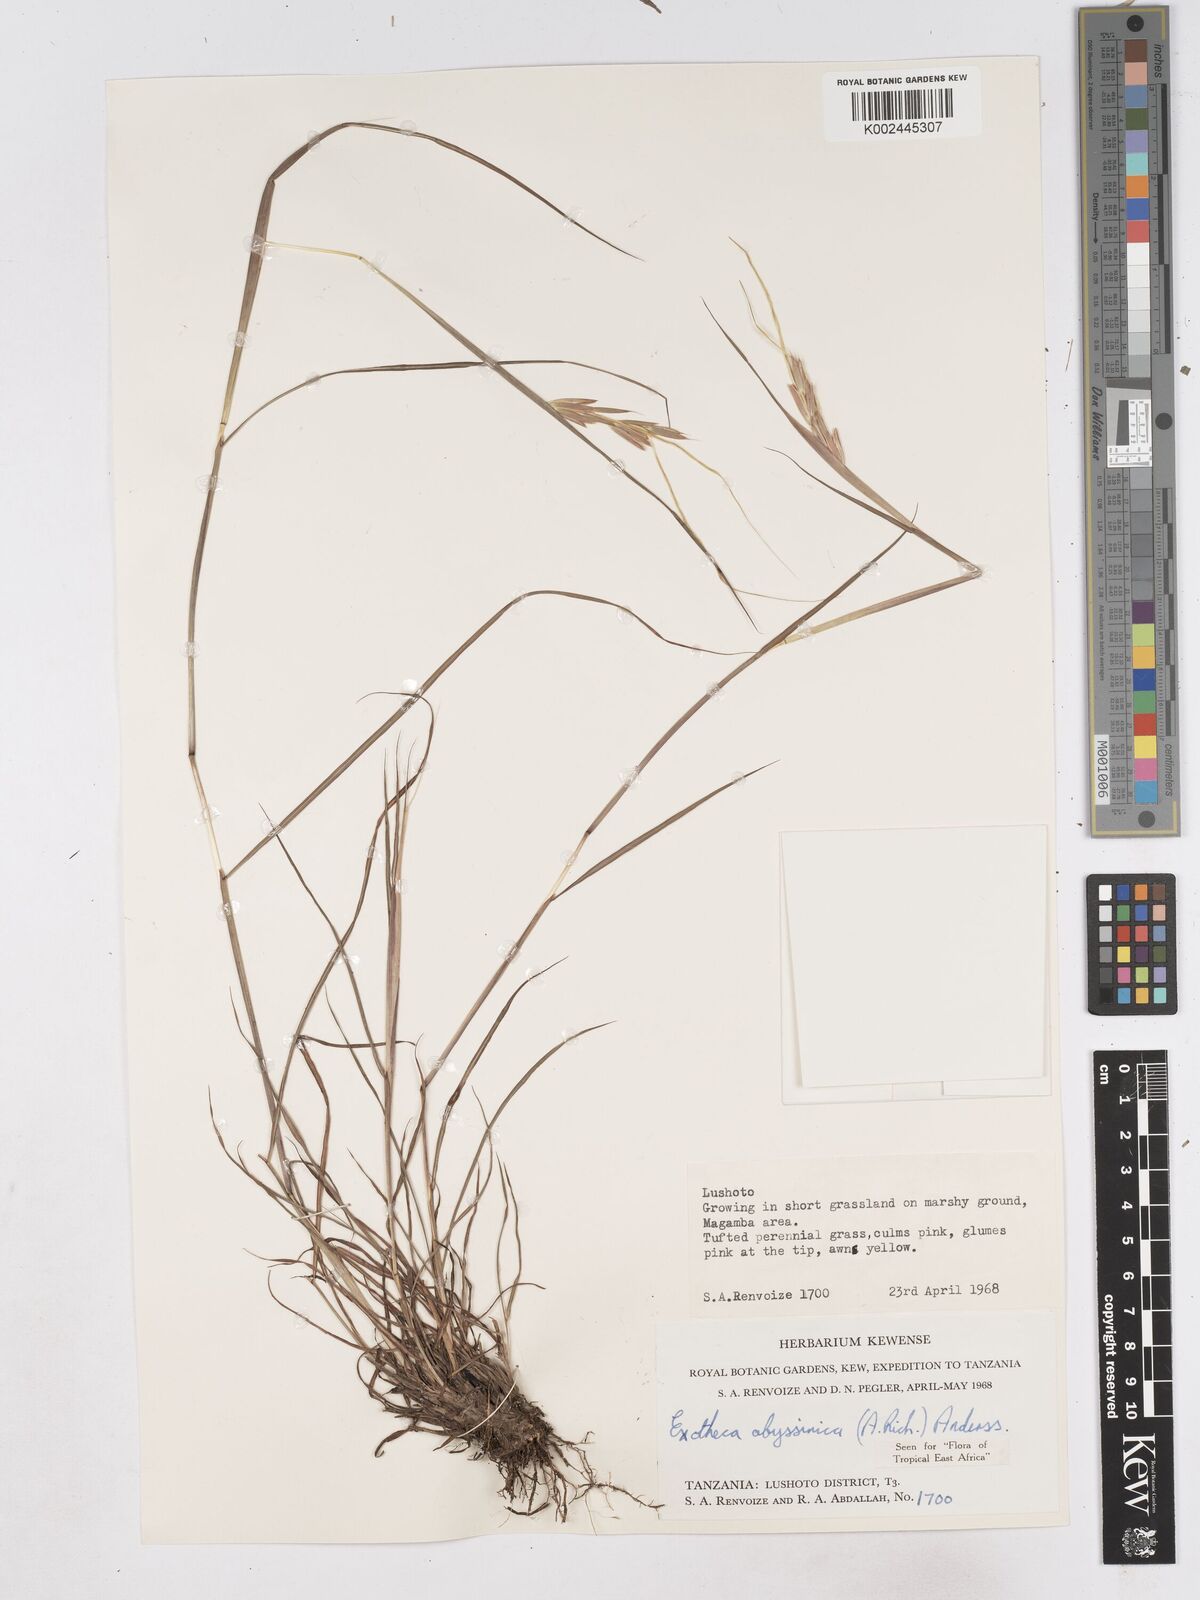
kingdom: Plantae
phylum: Tracheophyta
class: Liliopsida
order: Poales
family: Poaceae
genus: Exotheca
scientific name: Exotheca abyssinica
